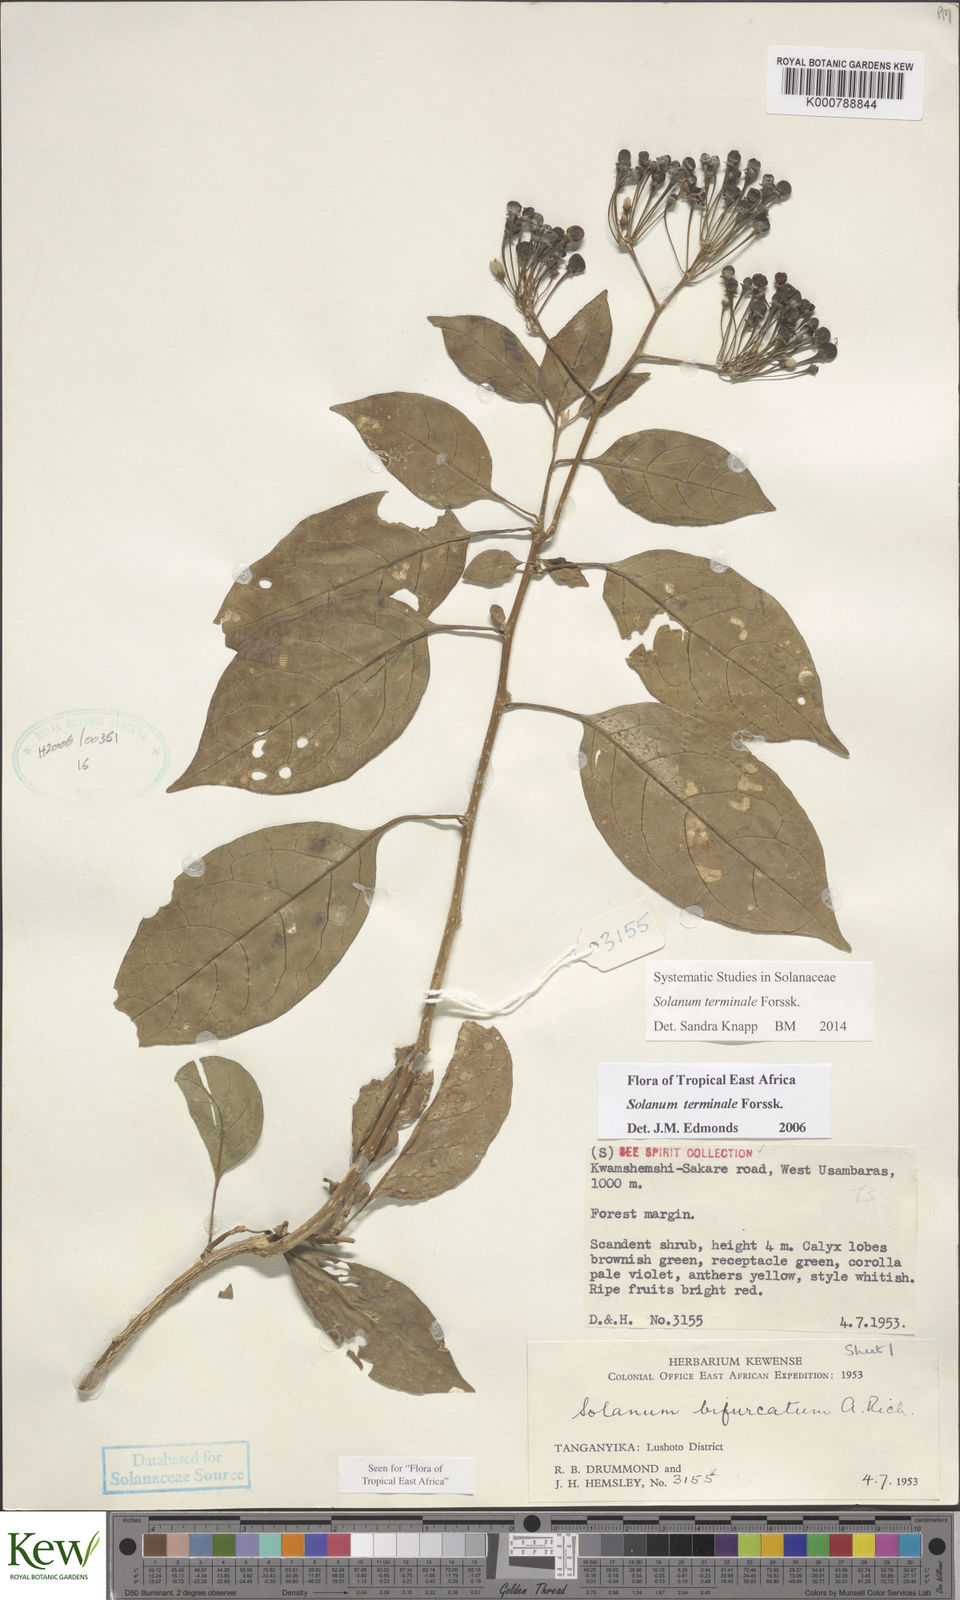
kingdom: Plantae
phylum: Tracheophyta
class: Magnoliopsida
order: Solanales
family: Solanaceae
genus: Solanum
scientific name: Solanum terminale
